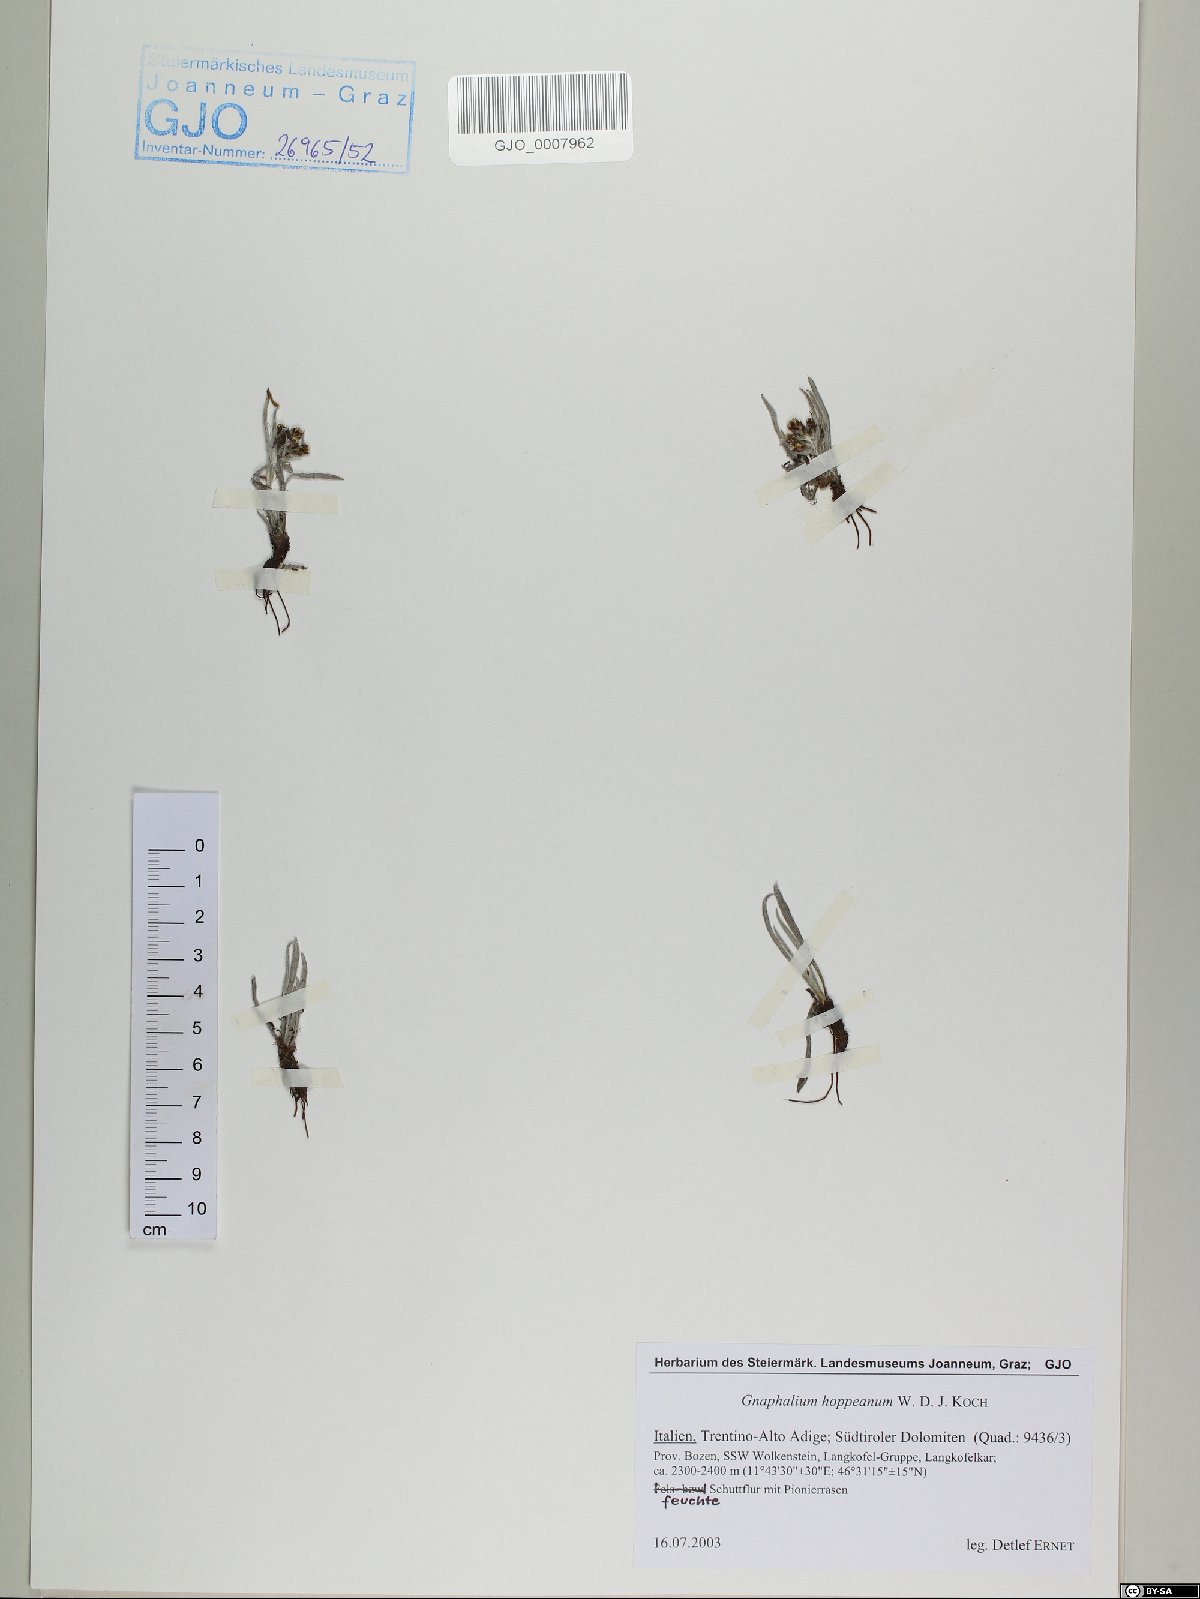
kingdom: Plantae
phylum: Tracheophyta
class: Magnoliopsida
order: Asterales
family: Asteraceae
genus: Omalotheca
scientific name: Omalotheca hoppeana
